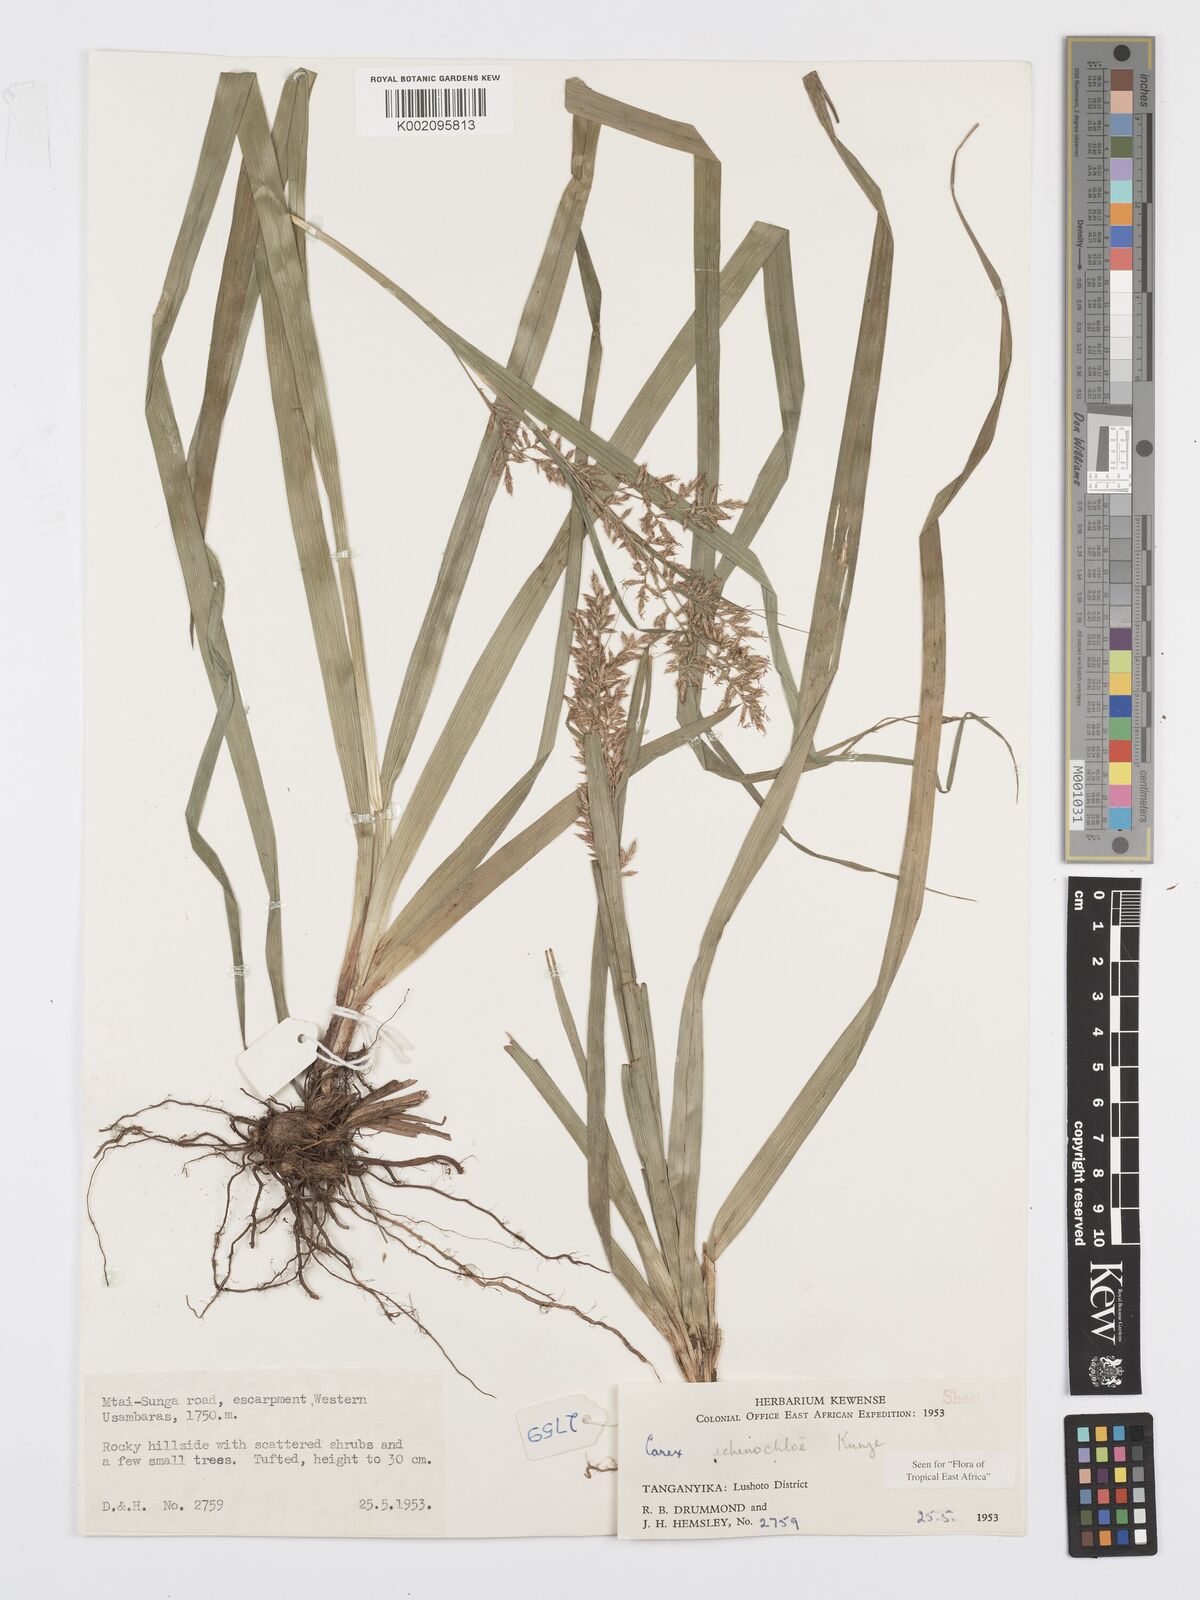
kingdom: Plantae
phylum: Tracheophyta
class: Liliopsida
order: Poales
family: Cyperaceae
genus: Carex
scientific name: Carex echinochloe
